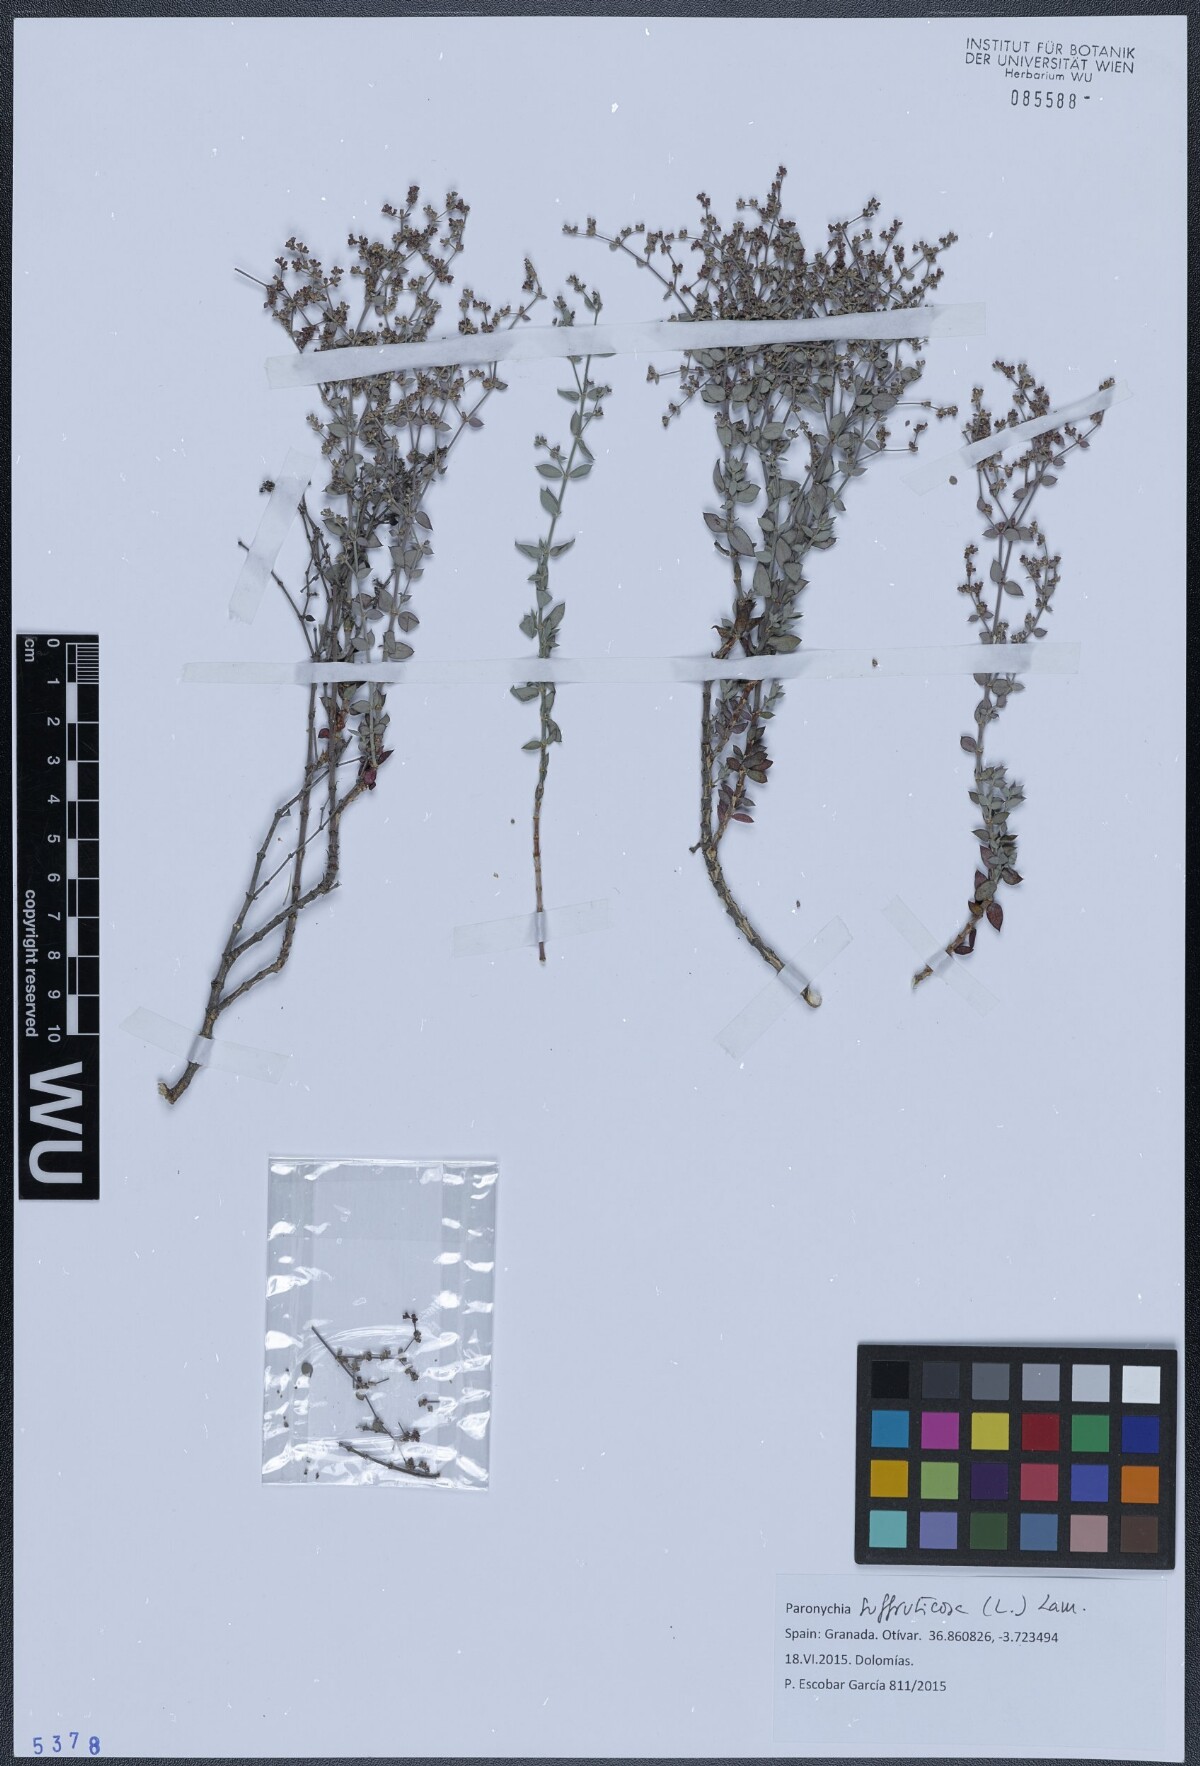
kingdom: Plantae
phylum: Tracheophyta
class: Magnoliopsida
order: Caryophyllales
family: Caryophyllaceae
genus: Paronychia
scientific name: Paronychia suffruticosa
